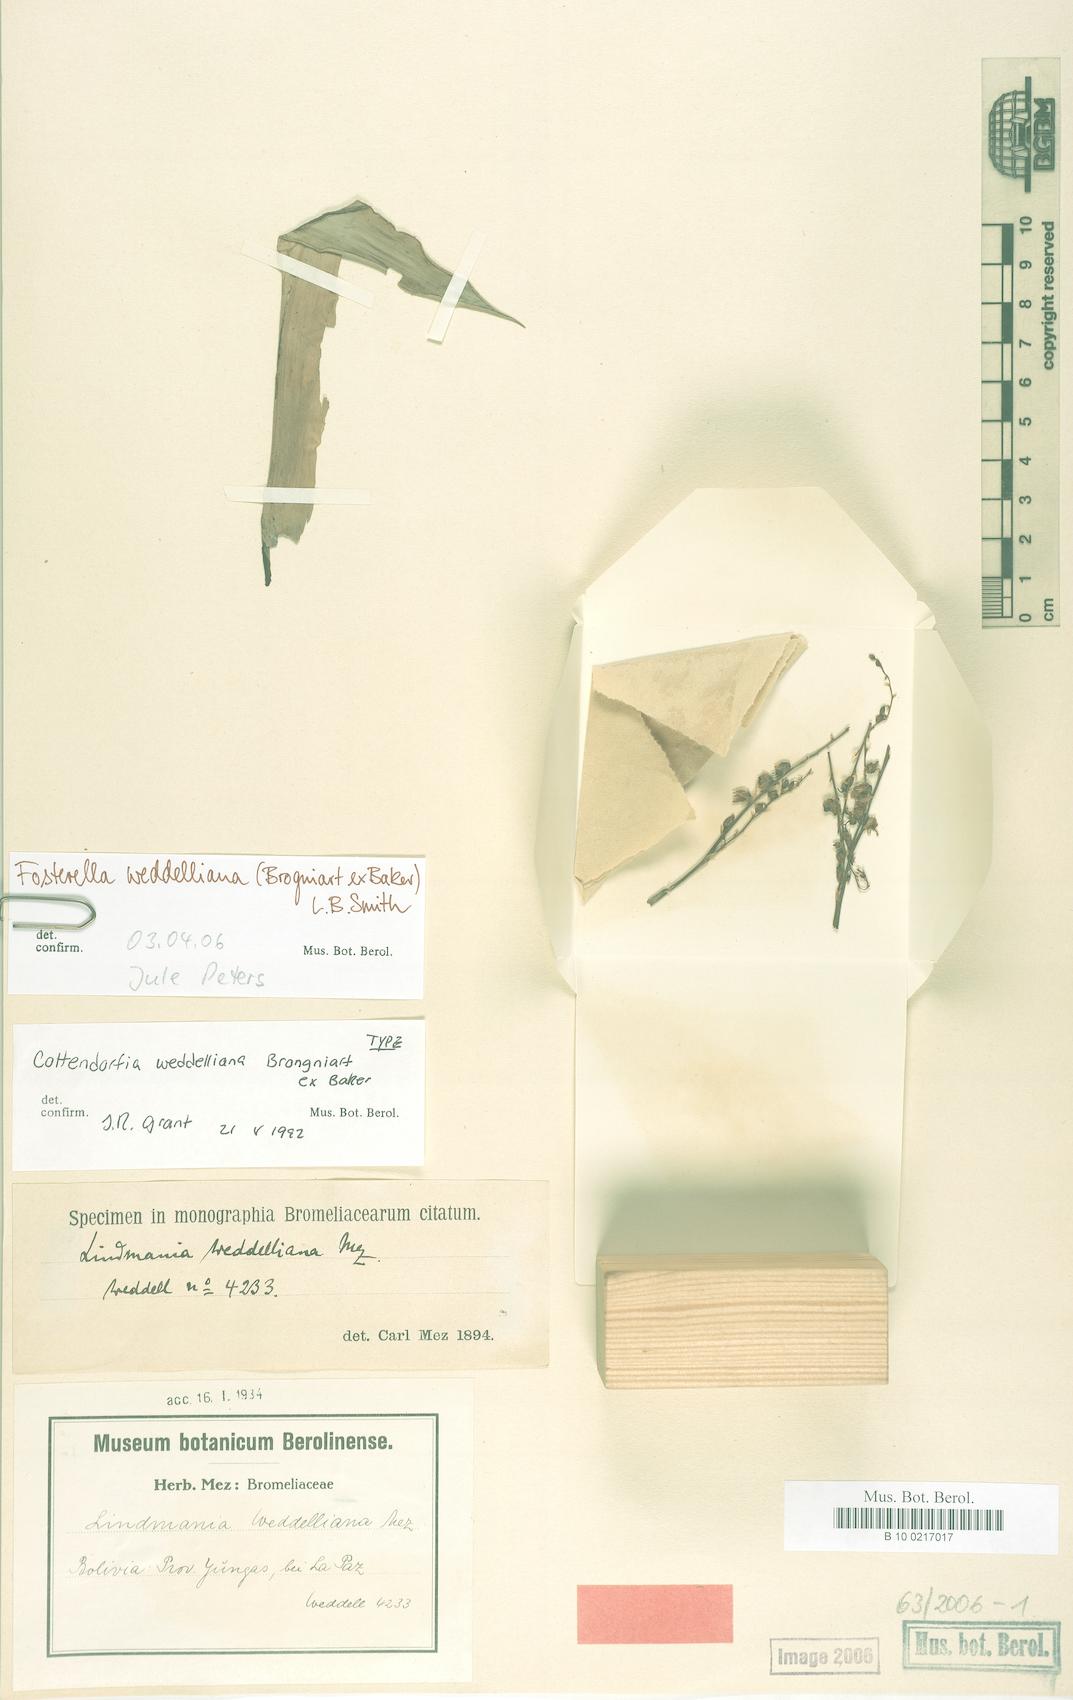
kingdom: Plantae
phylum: Tracheophyta
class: Liliopsida
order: Poales
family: Bromeliaceae
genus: Fosterella
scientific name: Fosterella weddelliana
